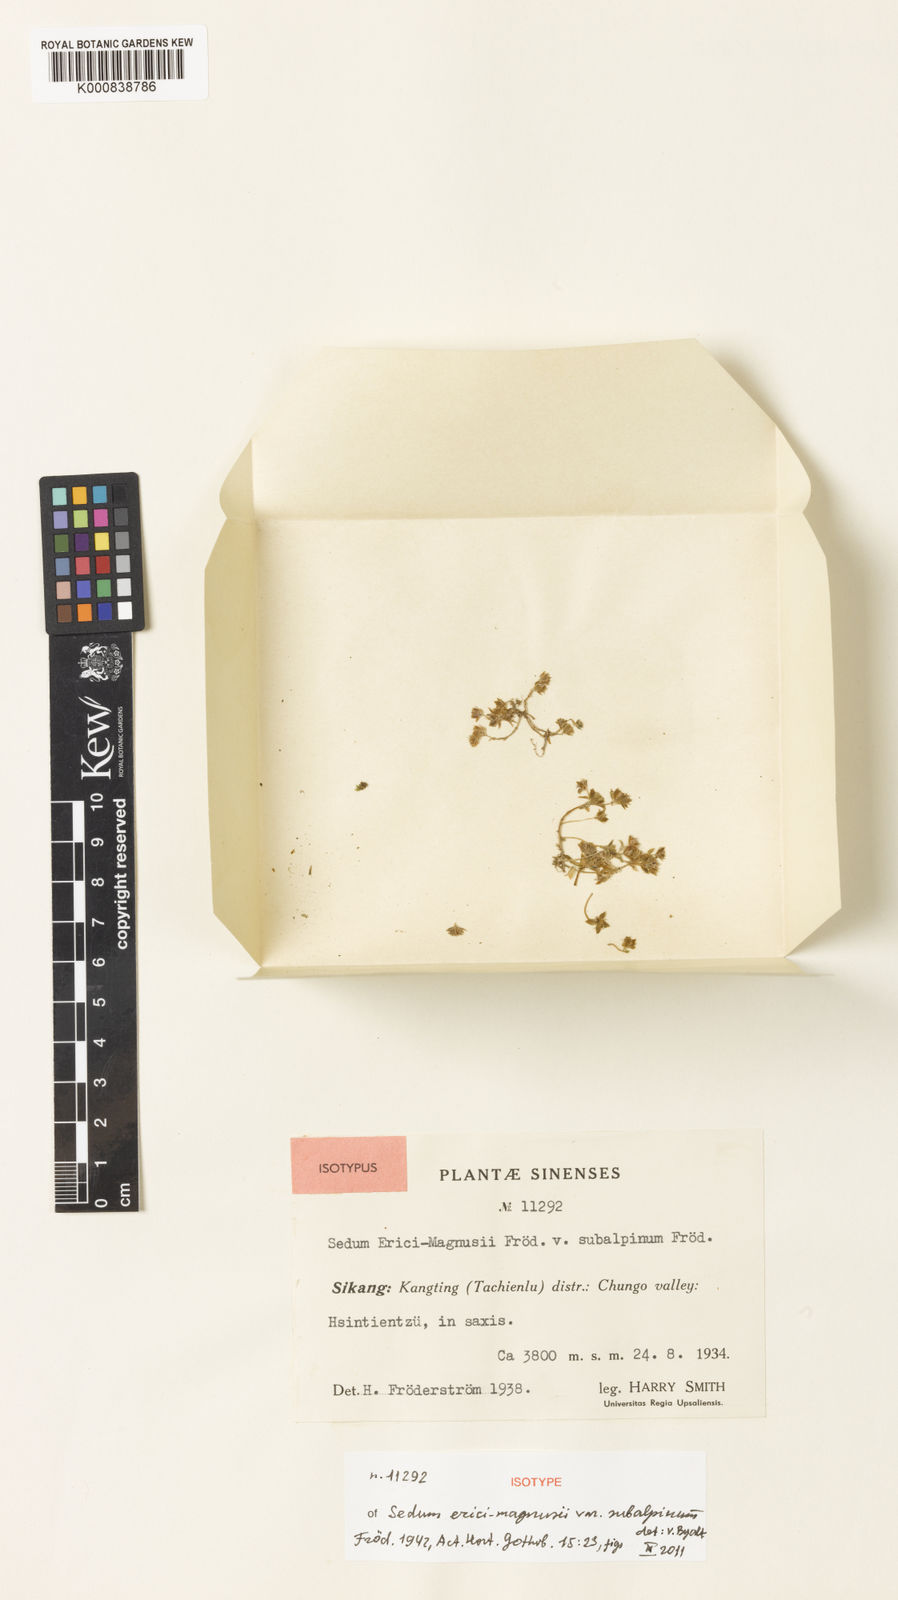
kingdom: Plantae
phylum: Tracheophyta
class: Magnoliopsida
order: Saxifragales
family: Crassulaceae
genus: Sedum
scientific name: Sedum
